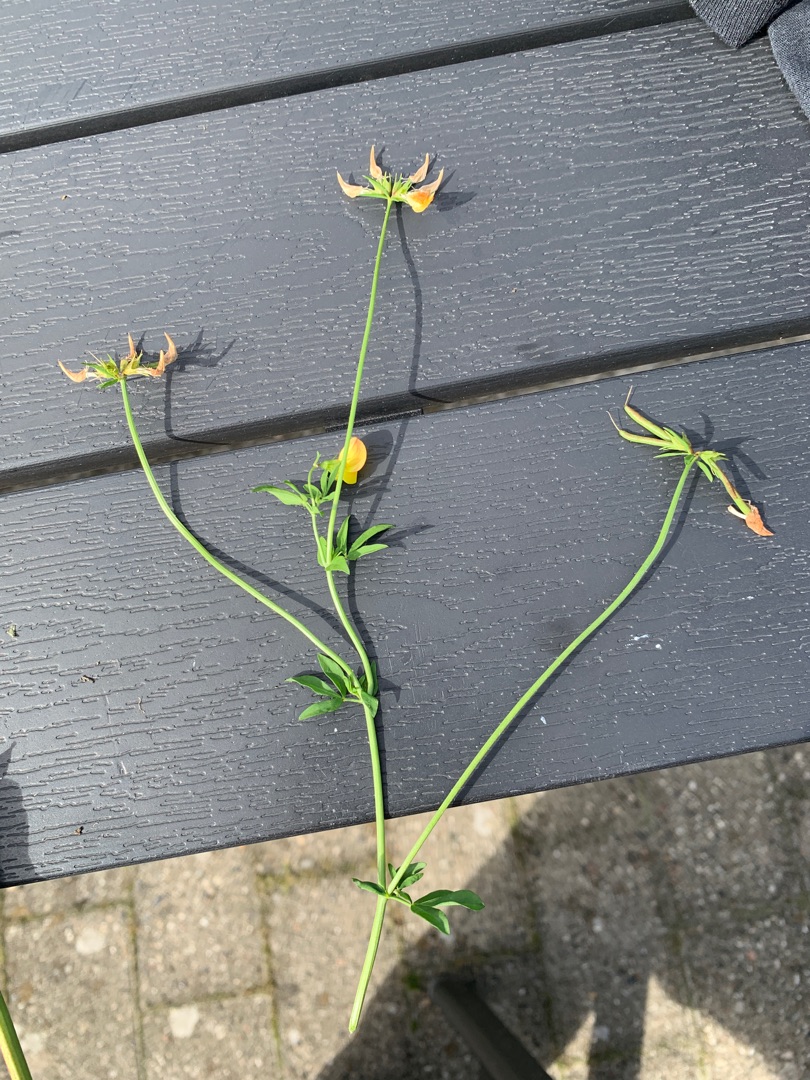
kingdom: Plantae
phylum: Tracheophyta
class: Magnoliopsida
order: Fabales
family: Fabaceae
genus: Lotus
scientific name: Lotus corniculatus
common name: Almindelig kællingetand
